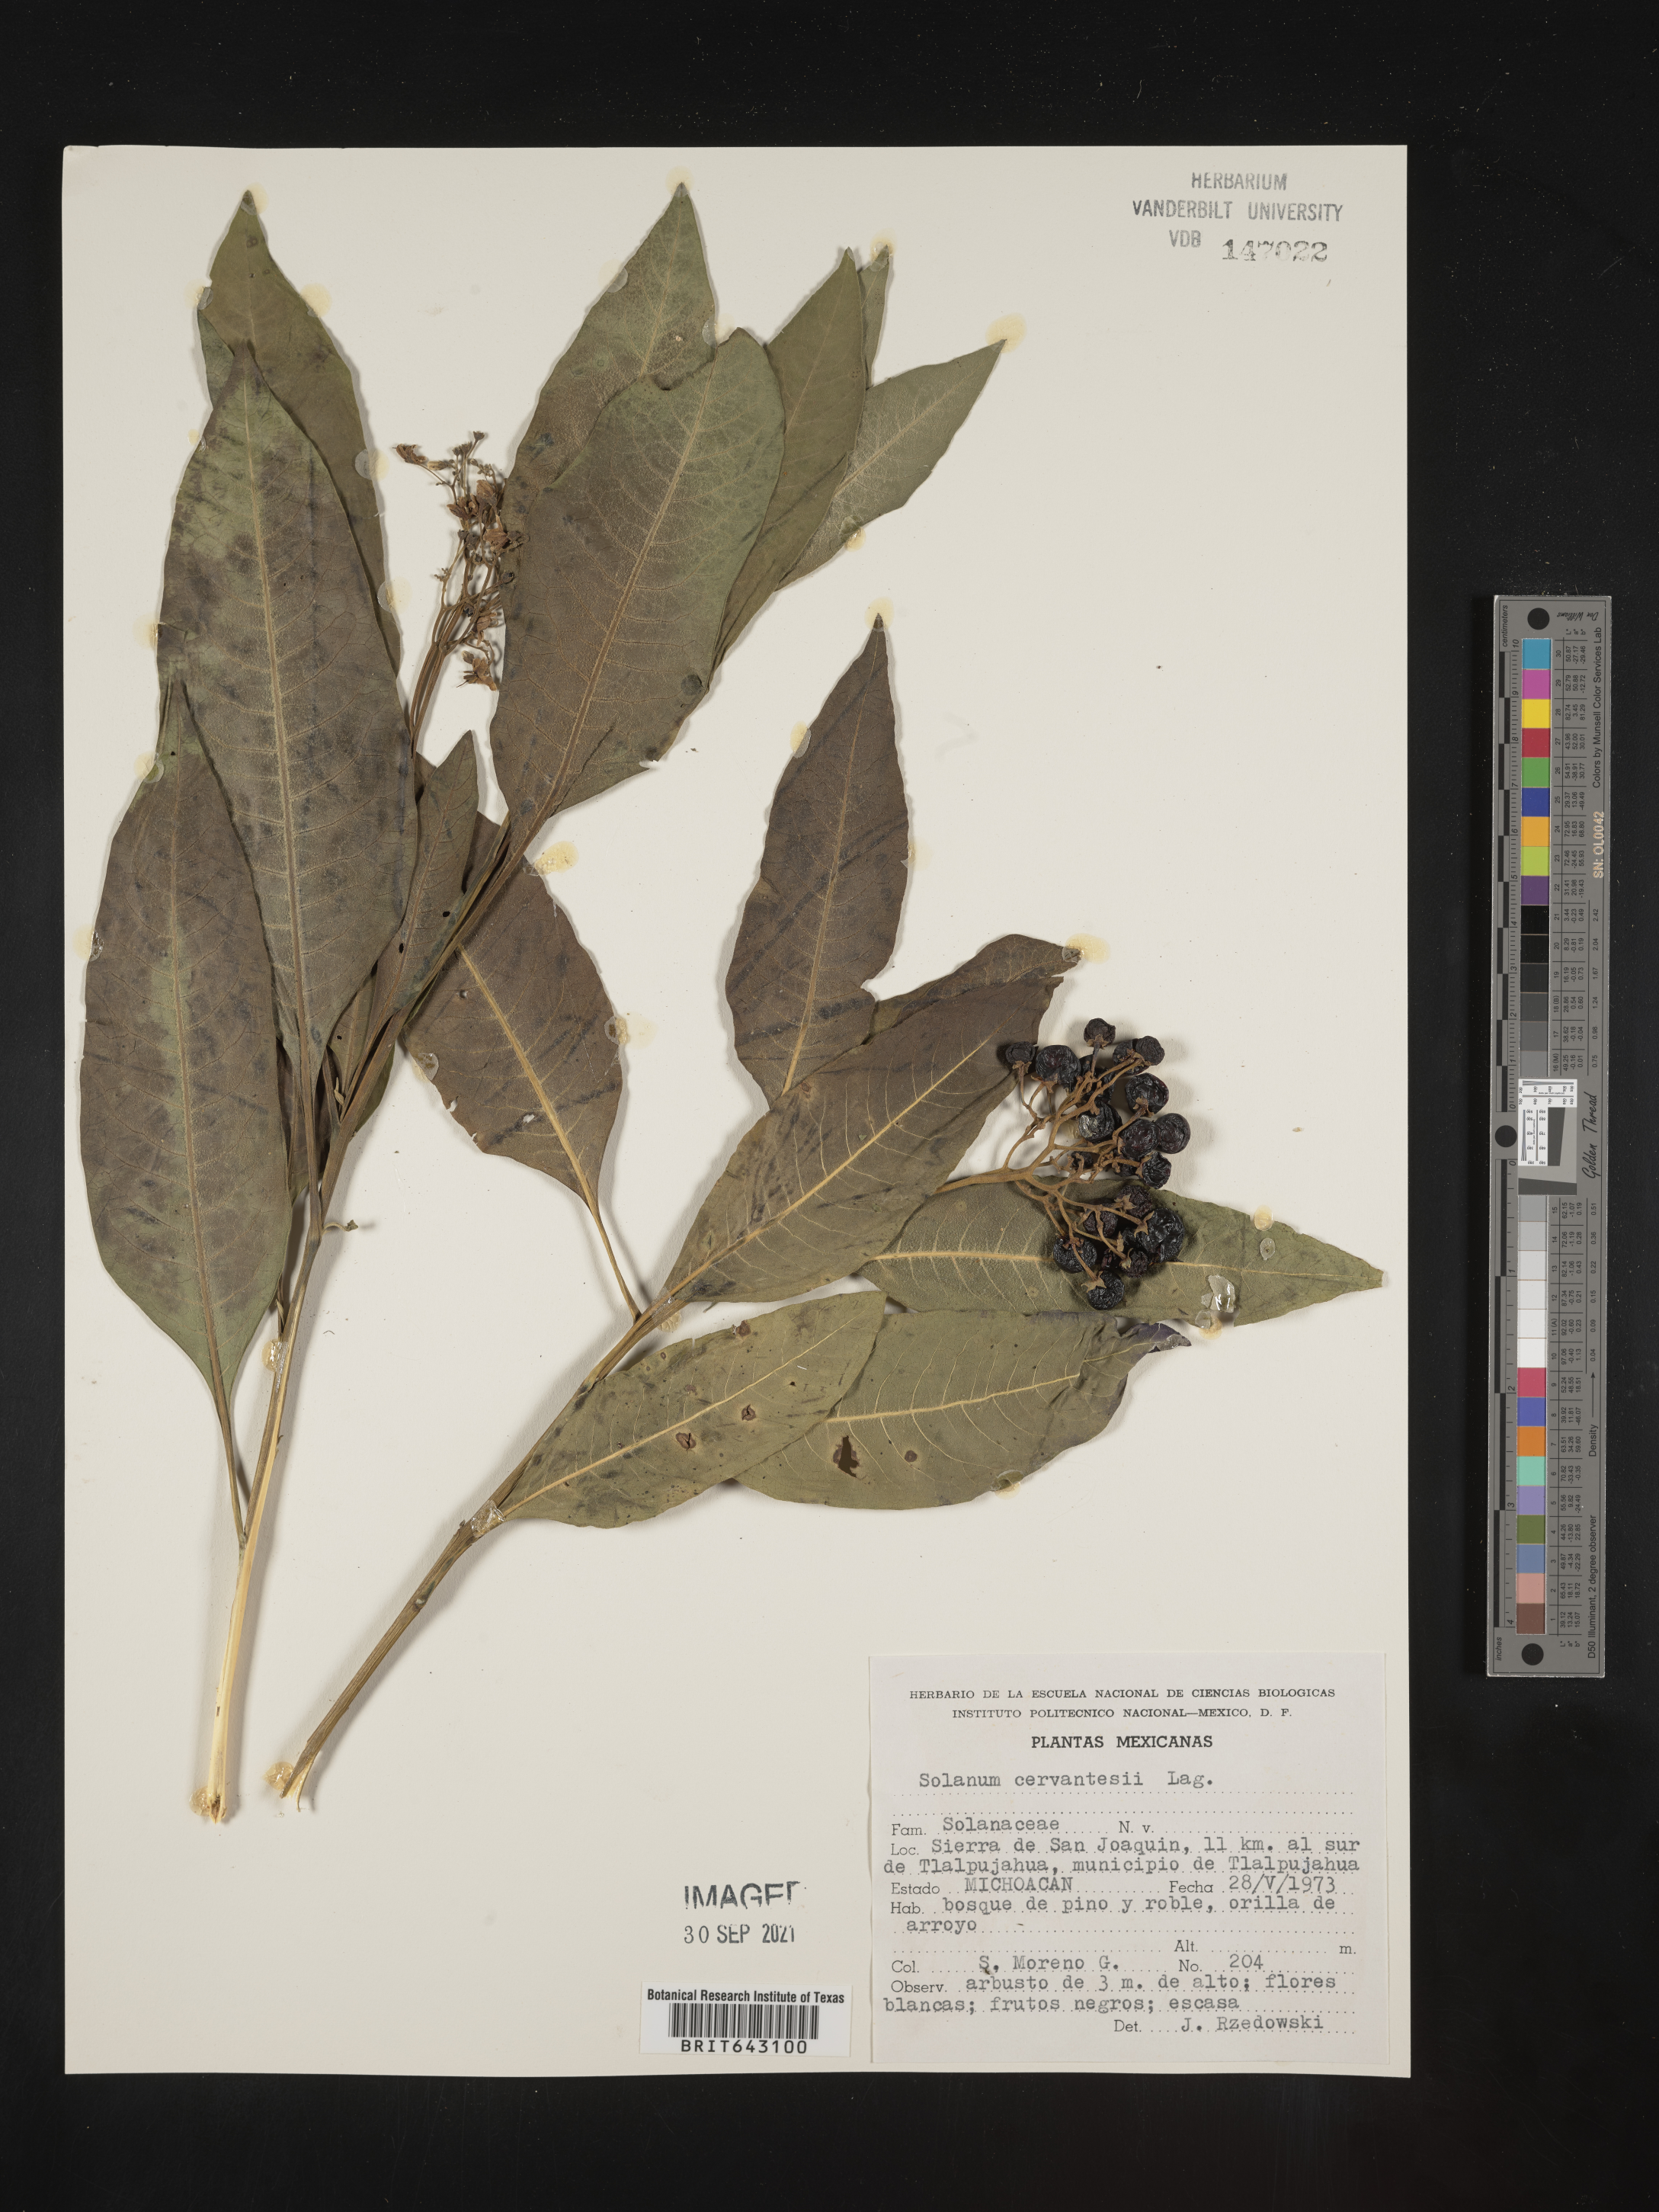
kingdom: Plantae
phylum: Tracheophyta
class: Magnoliopsida
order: Solanales
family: Solanaceae
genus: Solanum
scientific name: Solanum
